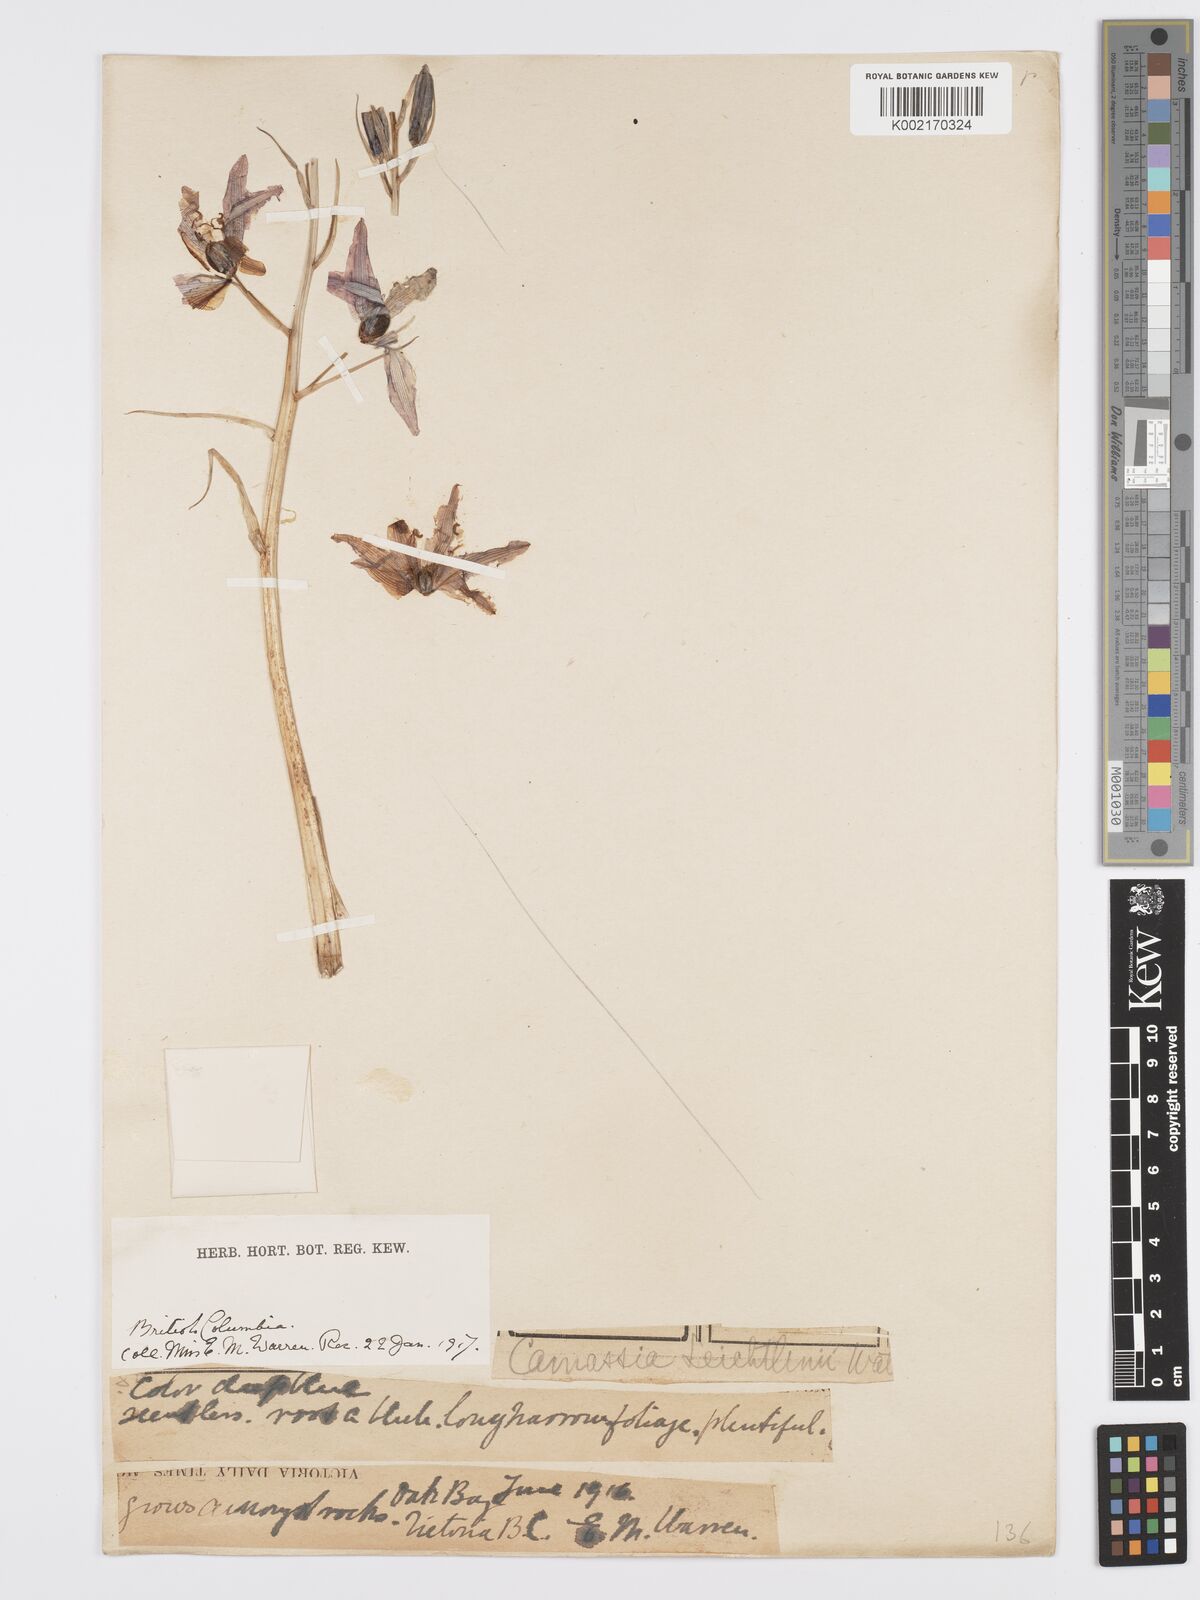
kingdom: Plantae
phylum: Tracheophyta
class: Liliopsida
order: Asparagales
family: Asparagaceae
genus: Camassia
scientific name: Camassia quamash
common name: Common camas
